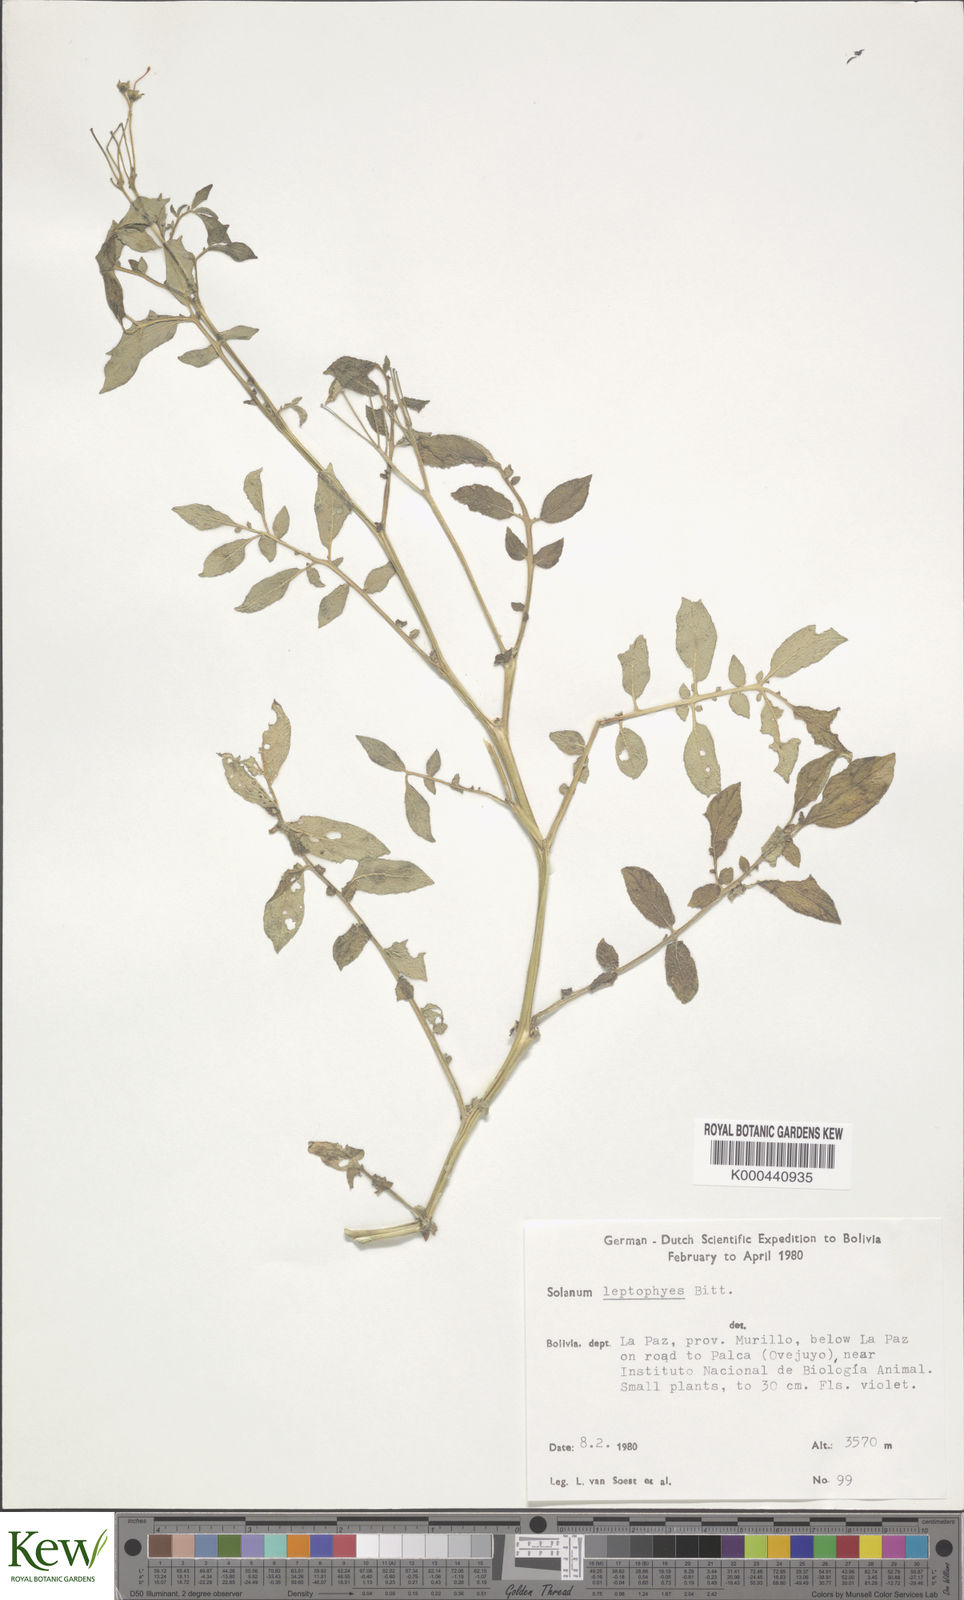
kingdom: Plantae
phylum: Tracheophyta
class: Magnoliopsida
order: Solanales
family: Solanaceae
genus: Solanum
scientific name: Solanum brevicaule
